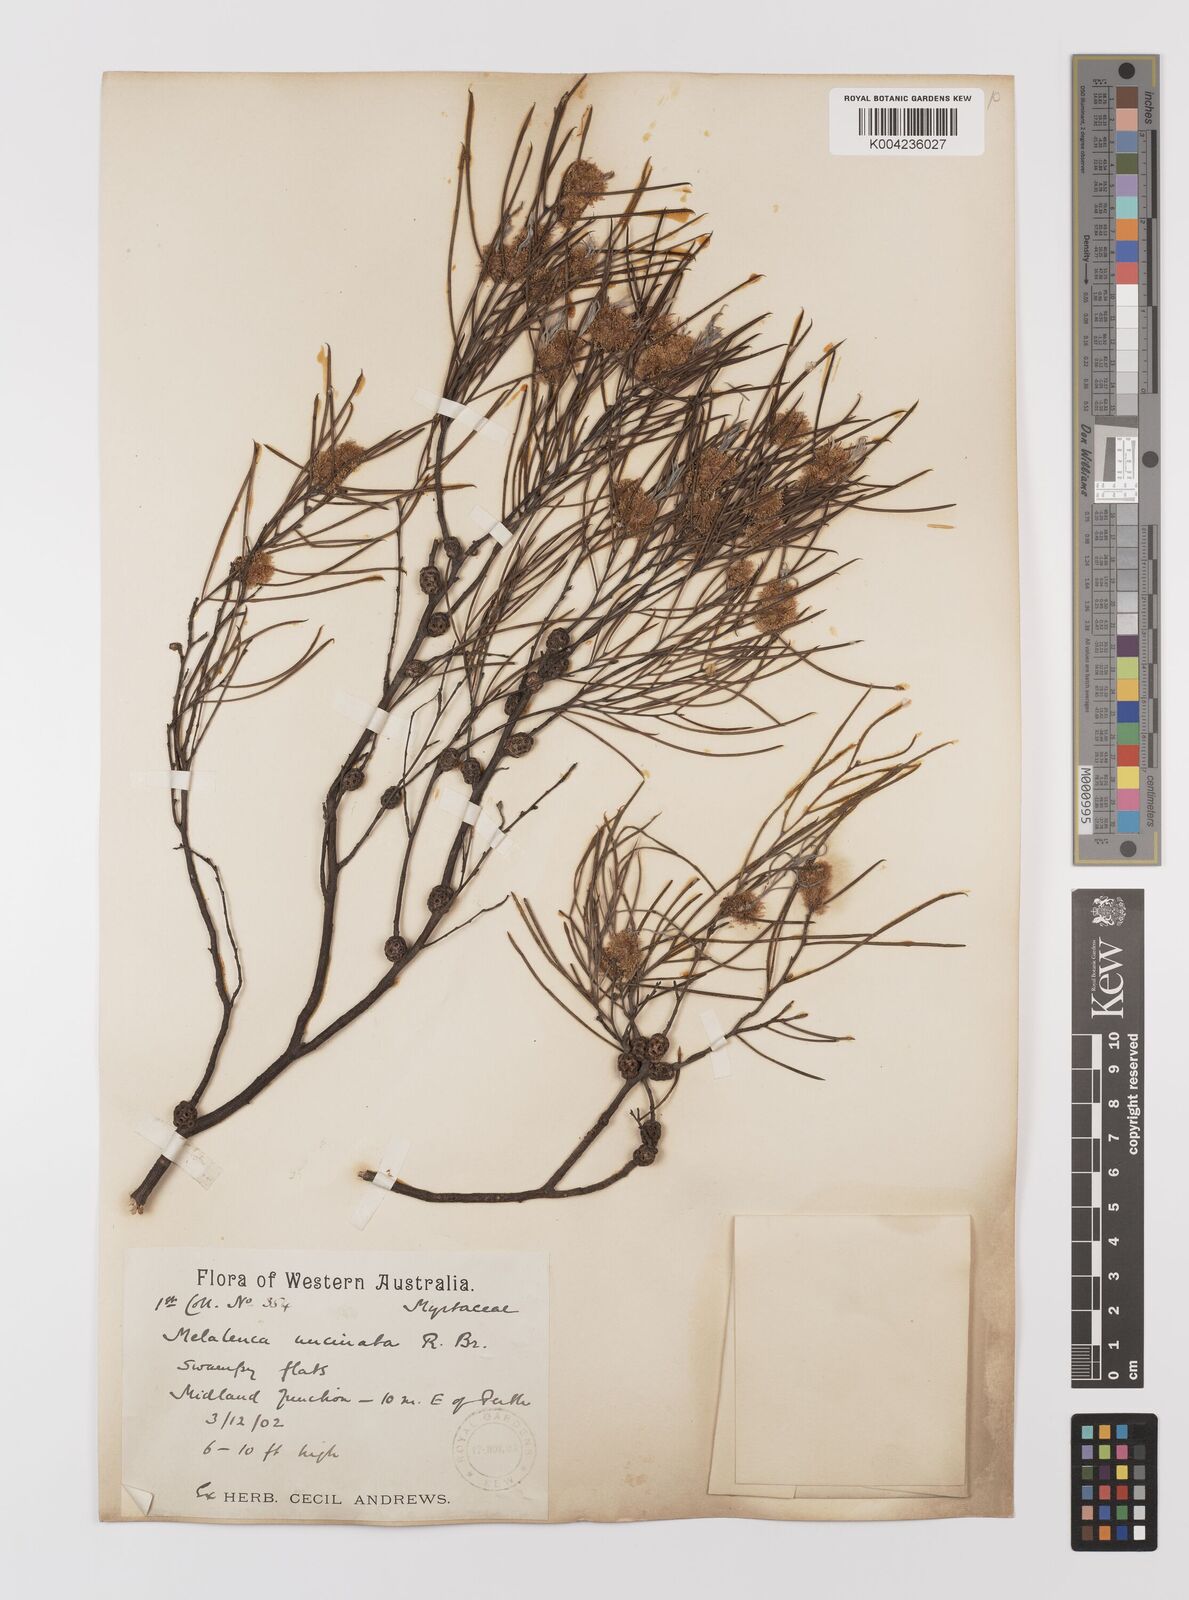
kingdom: Plantae
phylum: Tracheophyta
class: Magnoliopsida
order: Myrtales
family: Myrtaceae
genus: Melaleuca
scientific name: Melaleuca uncinata
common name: Broom honey myrtle
